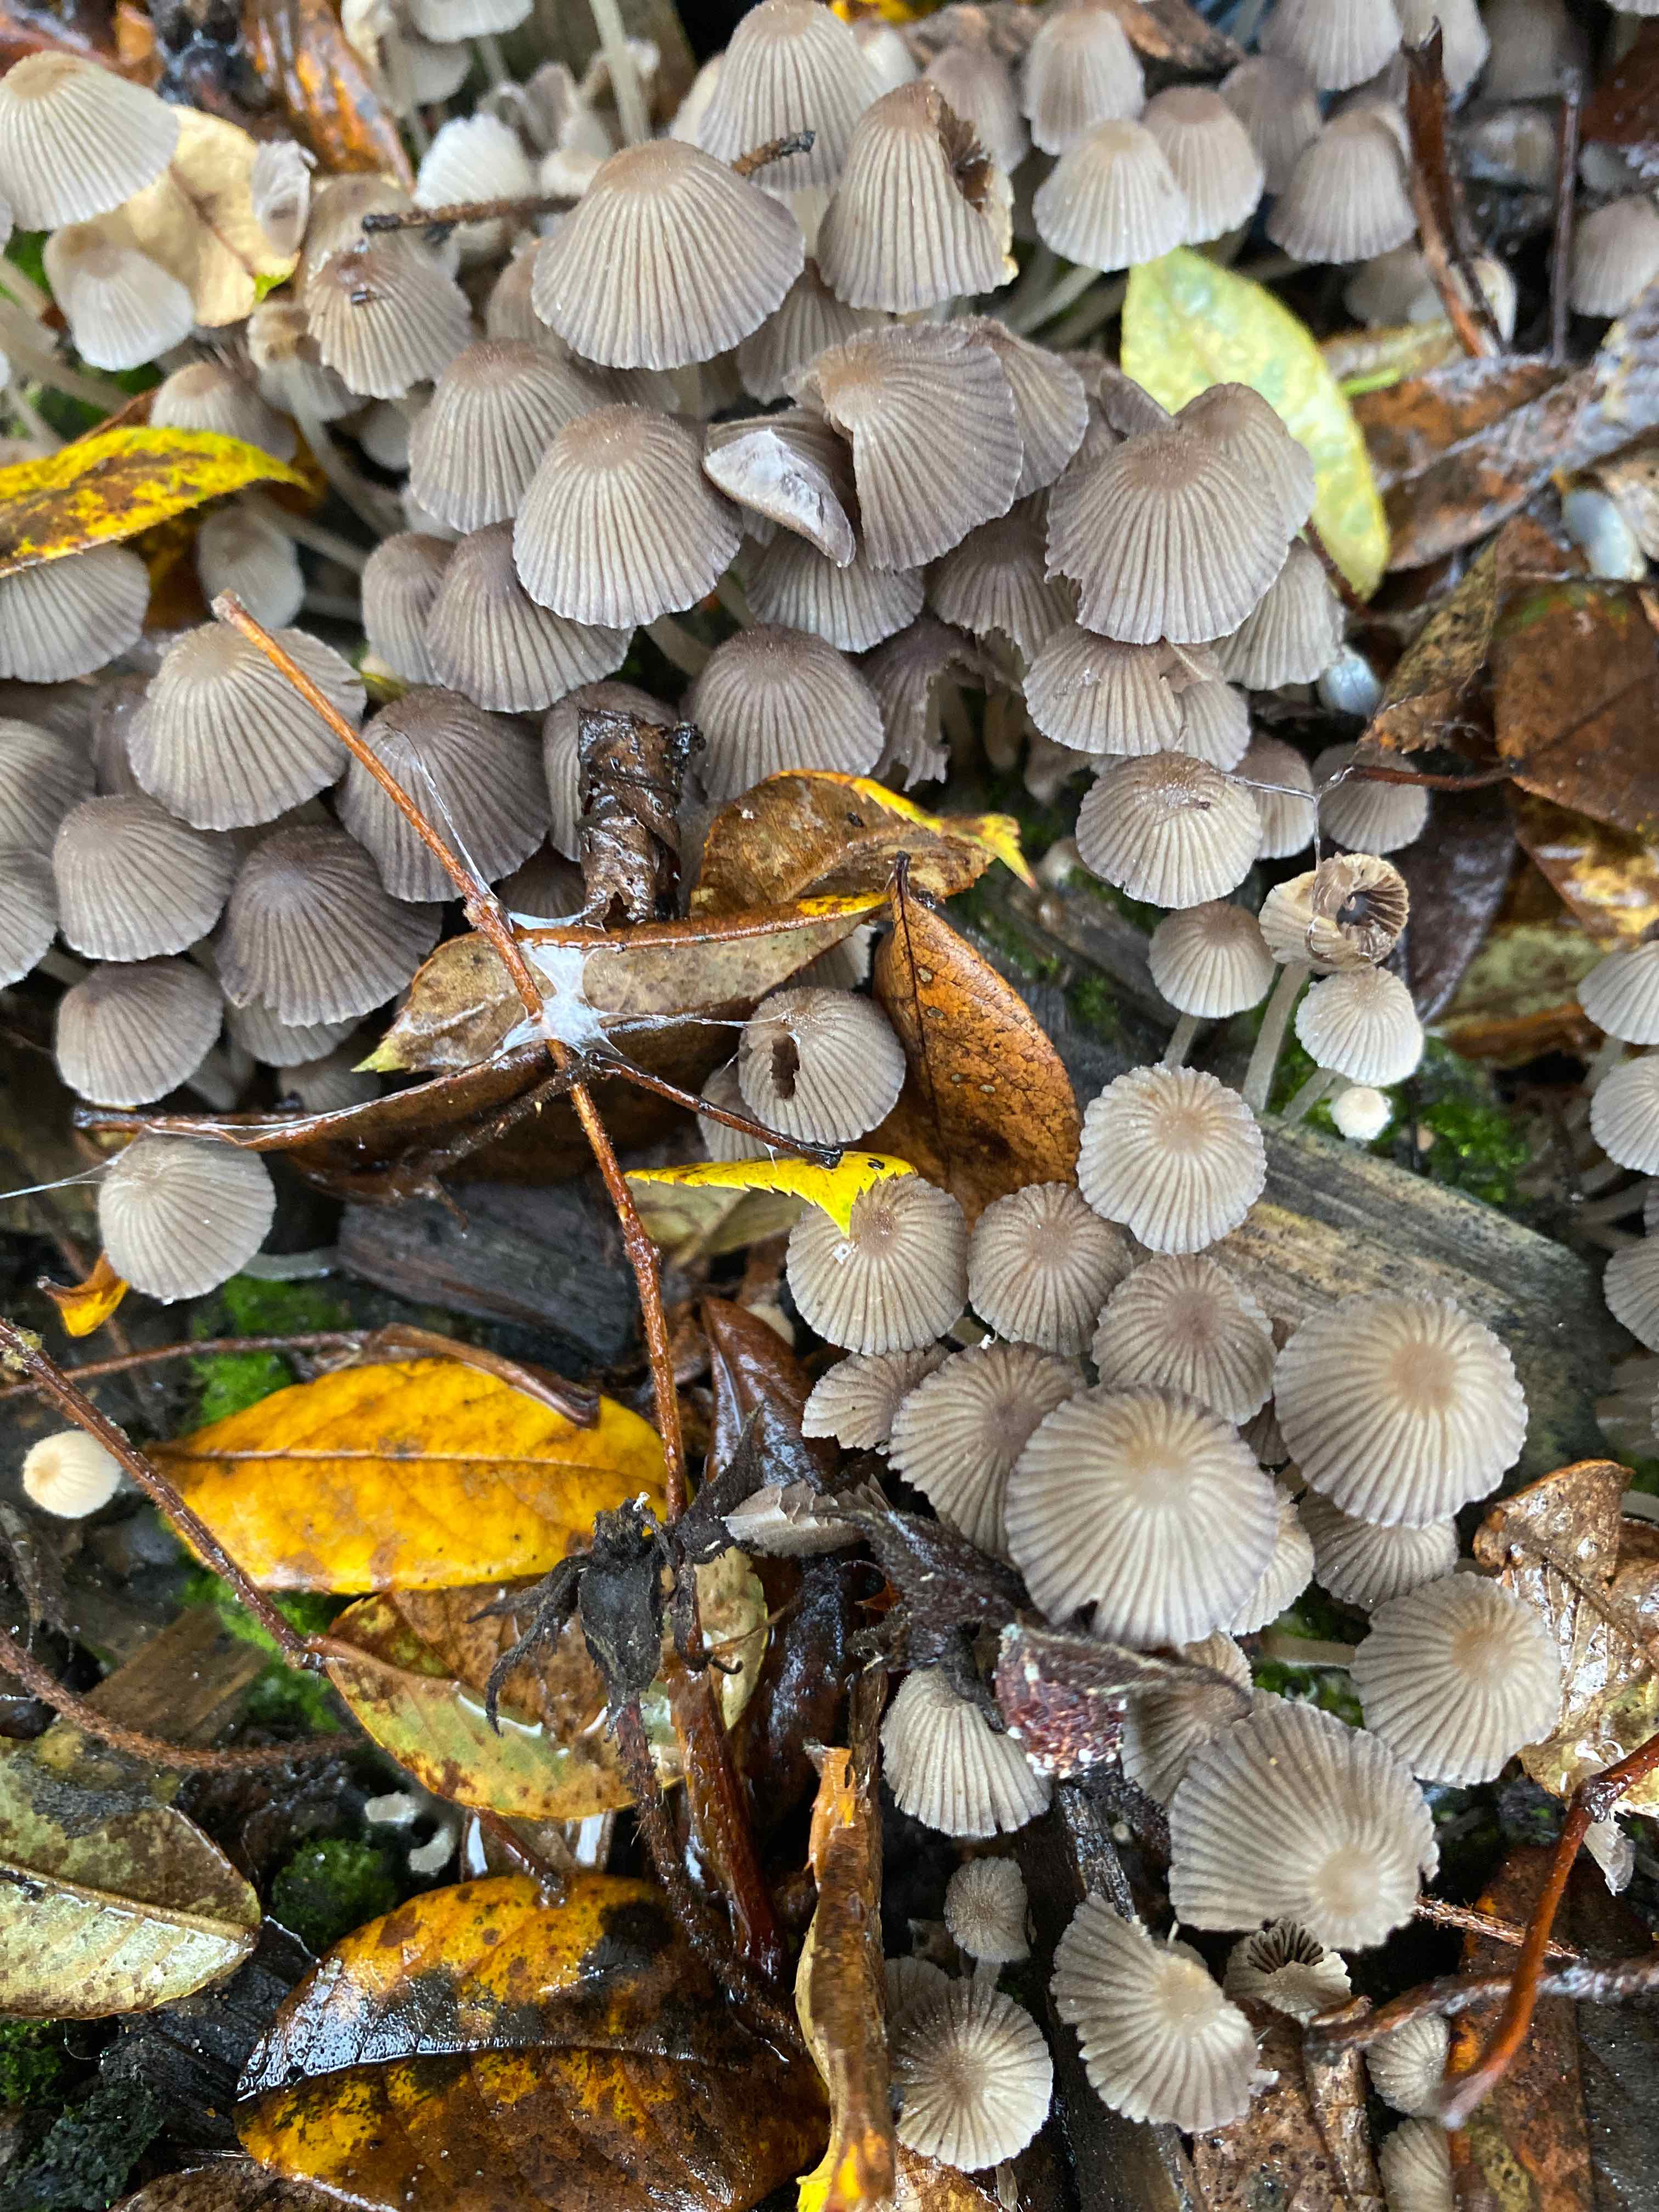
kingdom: Fungi
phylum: Basidiomycota
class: Agaricomycetes
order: Agaricales
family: Psathyrellaceae
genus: Coprinellus
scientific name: Coprinellus disseminatus
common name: bredsået blækhat
